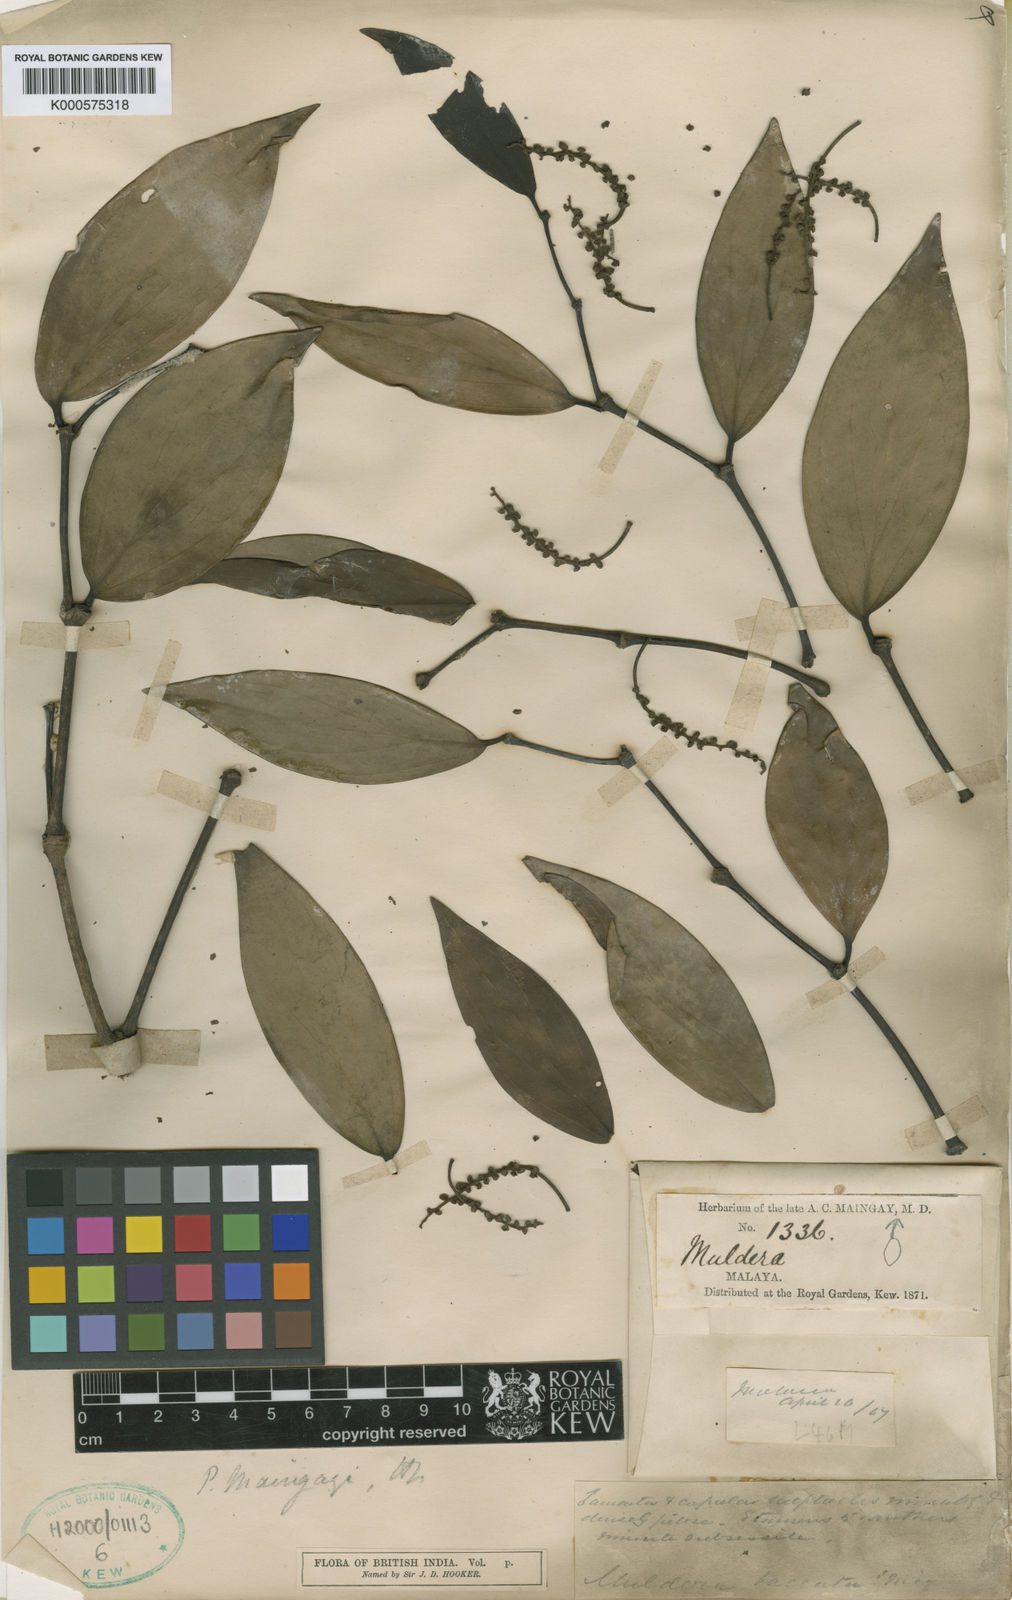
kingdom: Plantae
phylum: Tracheophyta
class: Magnoliopsida
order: Piperales
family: Piperaceae
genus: Piper
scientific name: Piper maingayi
